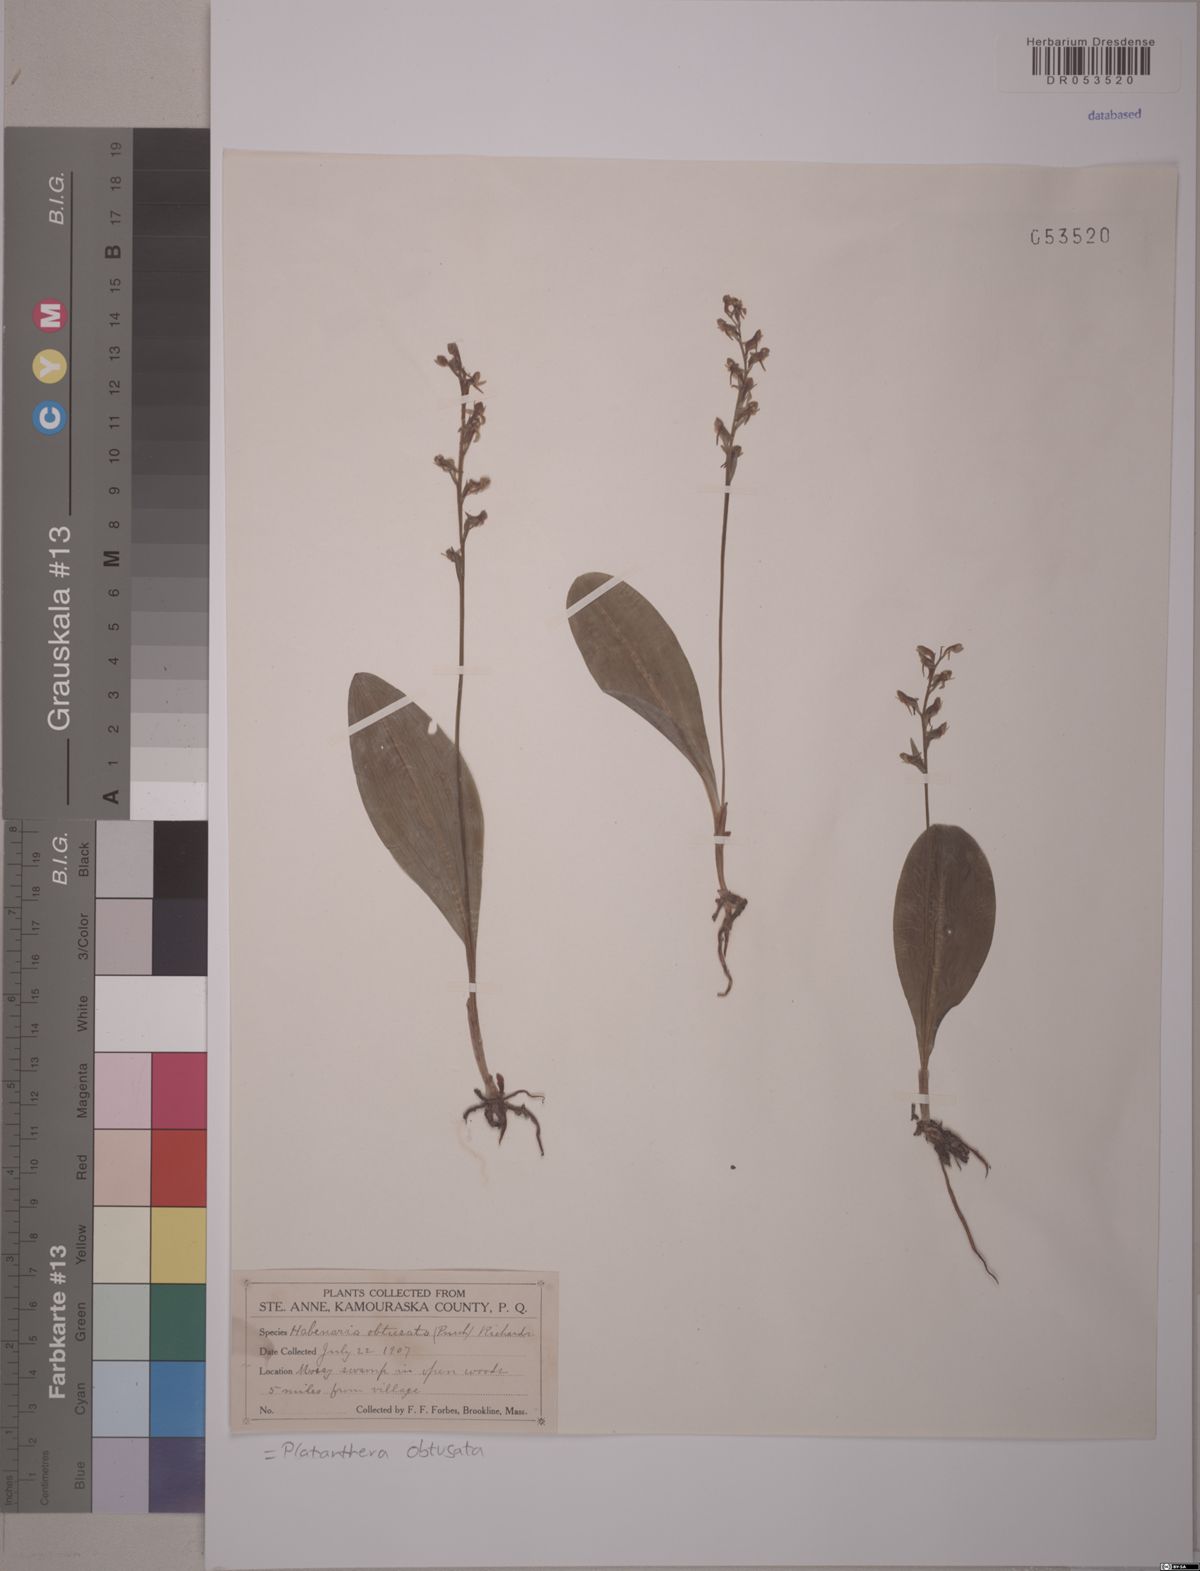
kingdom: Plantae
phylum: Tracheophyta
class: Liliopsida
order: Asparagales
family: Orchidaceae
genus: Platanthera
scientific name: Platanthera obtusata
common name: Blunt bog orchid
